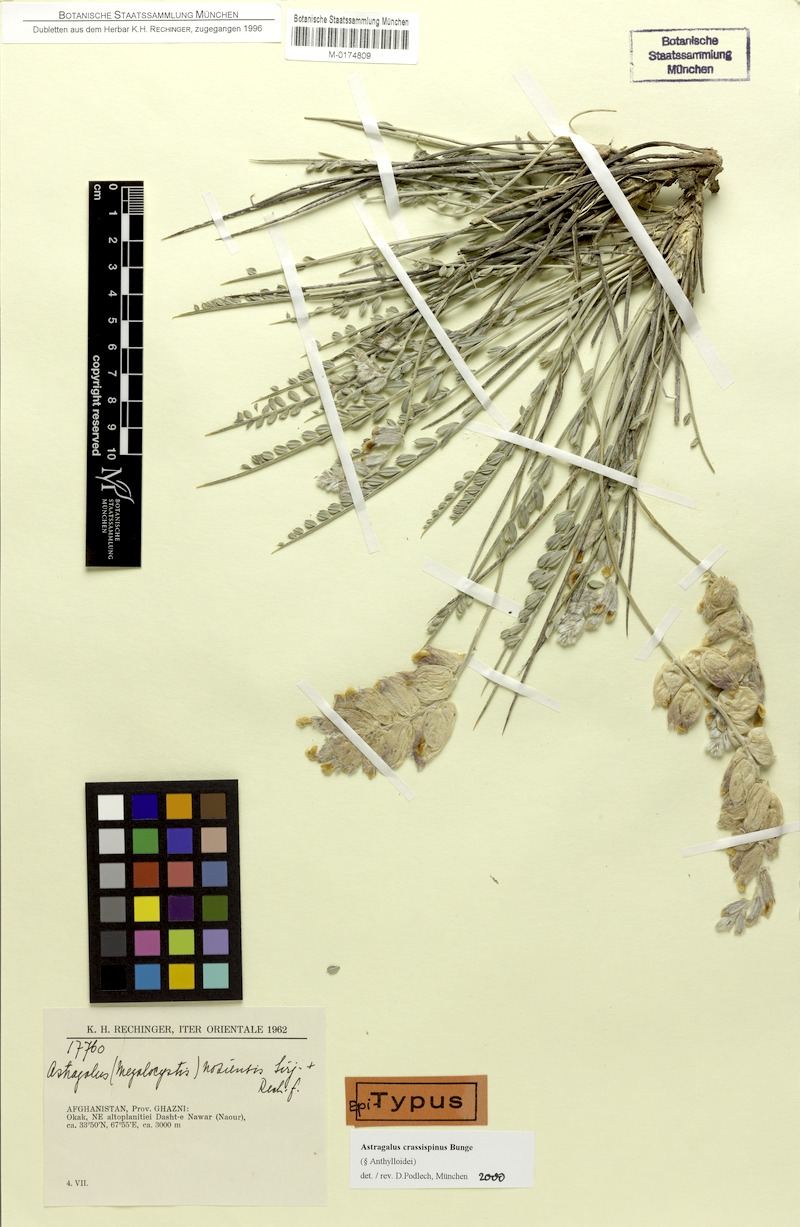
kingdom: Plantae
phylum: Tracheophyta
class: Magnoliopsida
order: Fabales
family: Fabaceae
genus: Astragalus
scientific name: Astragalus crassispinus
